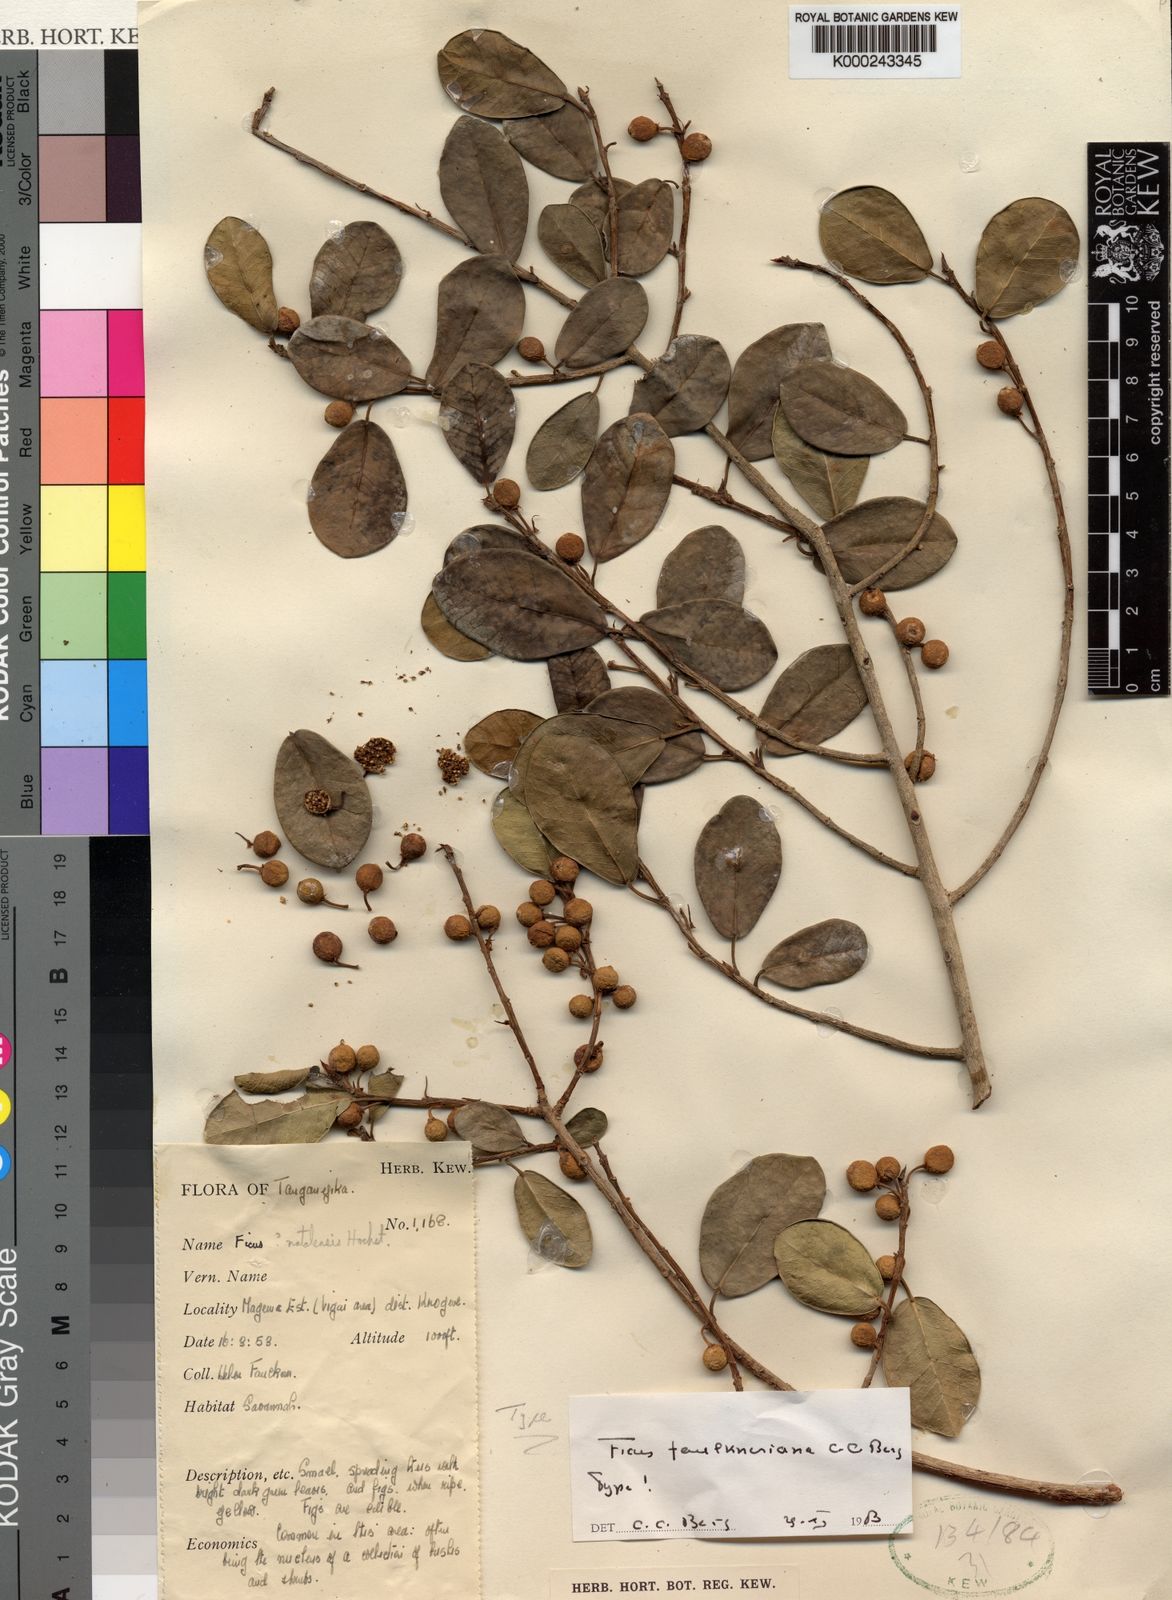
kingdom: Plantae
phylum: Tracheophyta
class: Magnoliopsida
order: Rosales
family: Moraceae
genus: Ficus
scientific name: Ficus faulkneriana
